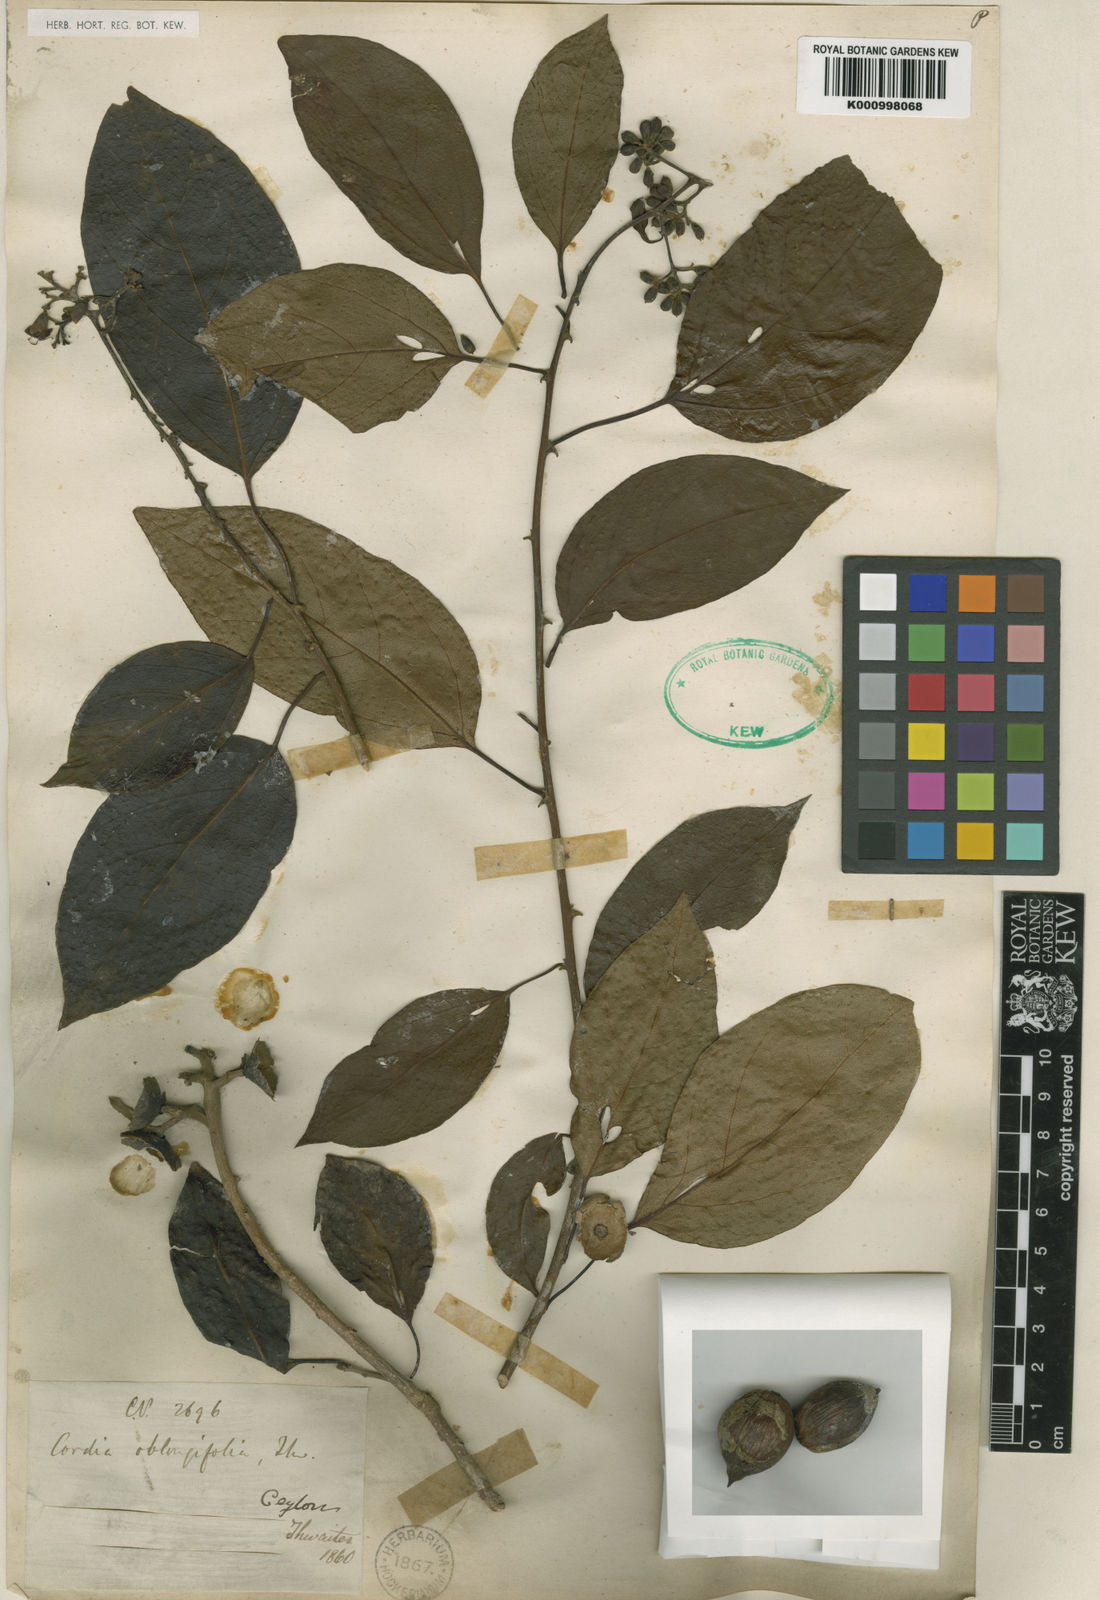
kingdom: Plantae
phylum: Tracheophyta
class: Magnoliopsida
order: Boraginales
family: Cordiaceae
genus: Cordia
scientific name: Cordia oblongifolia
